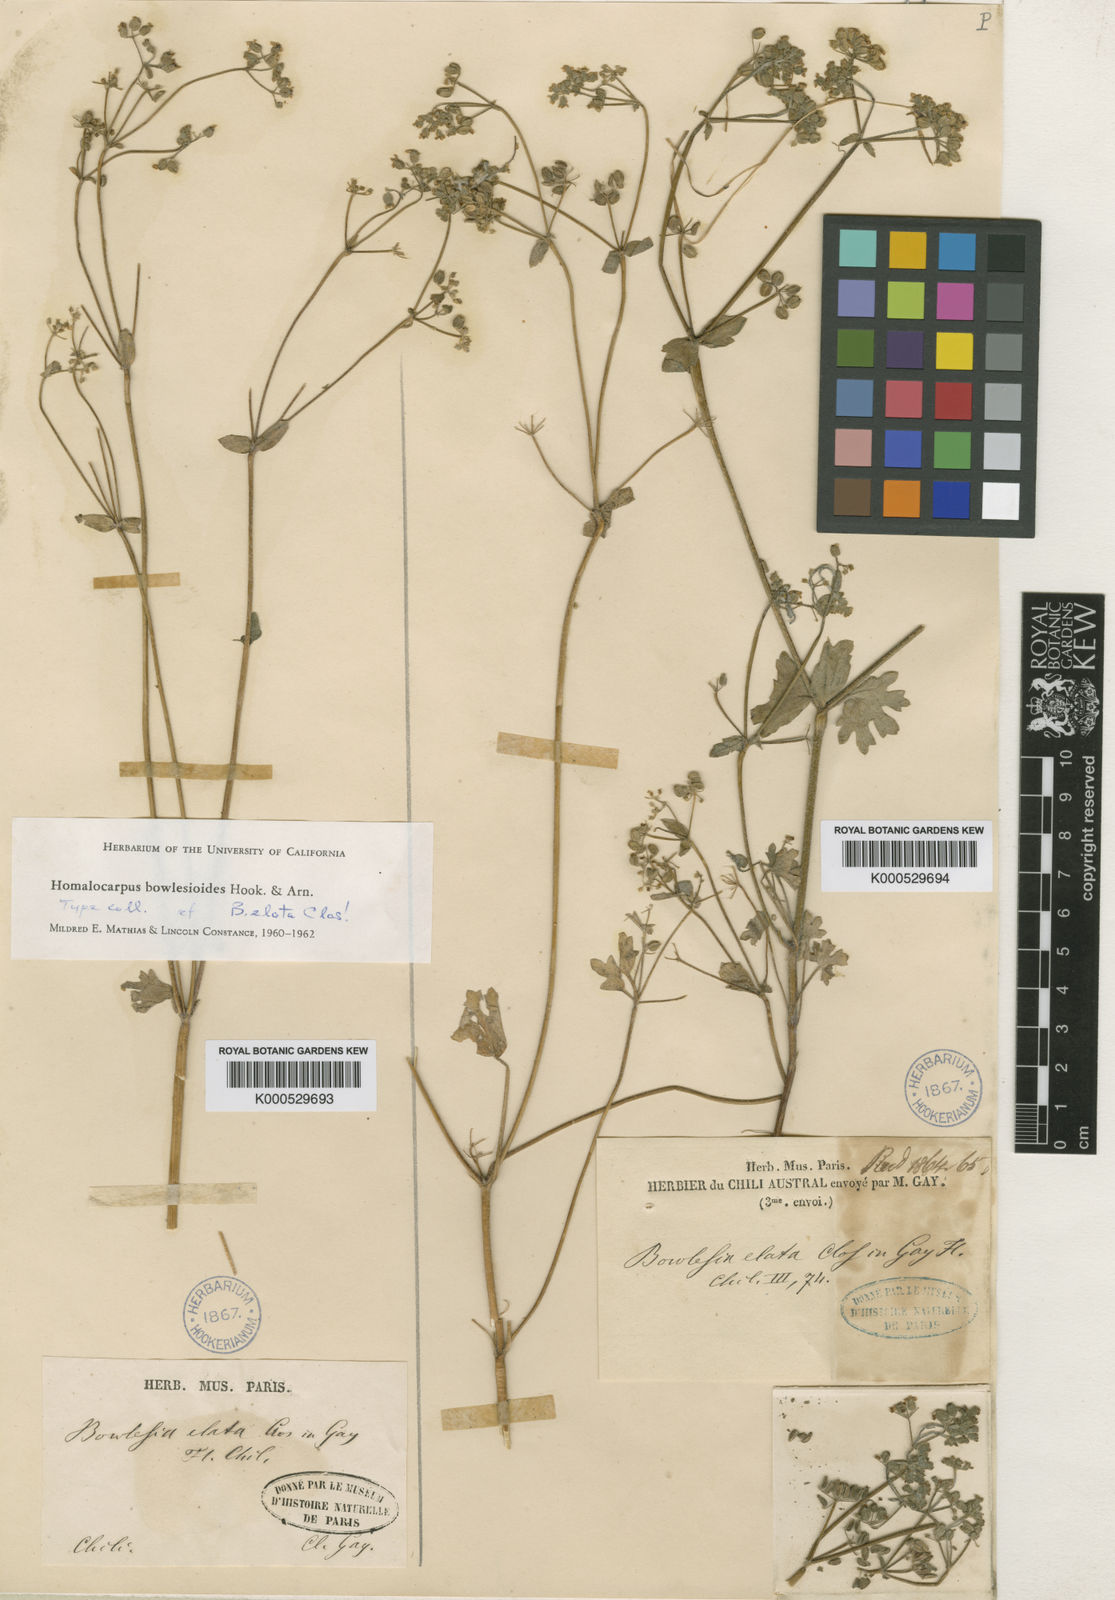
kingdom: Plantae
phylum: Tracheophyta
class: Magnoliopsida
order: Apiales
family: Apiaceae
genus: Homalocarpus
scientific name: Homalocarpus bowlesioides
